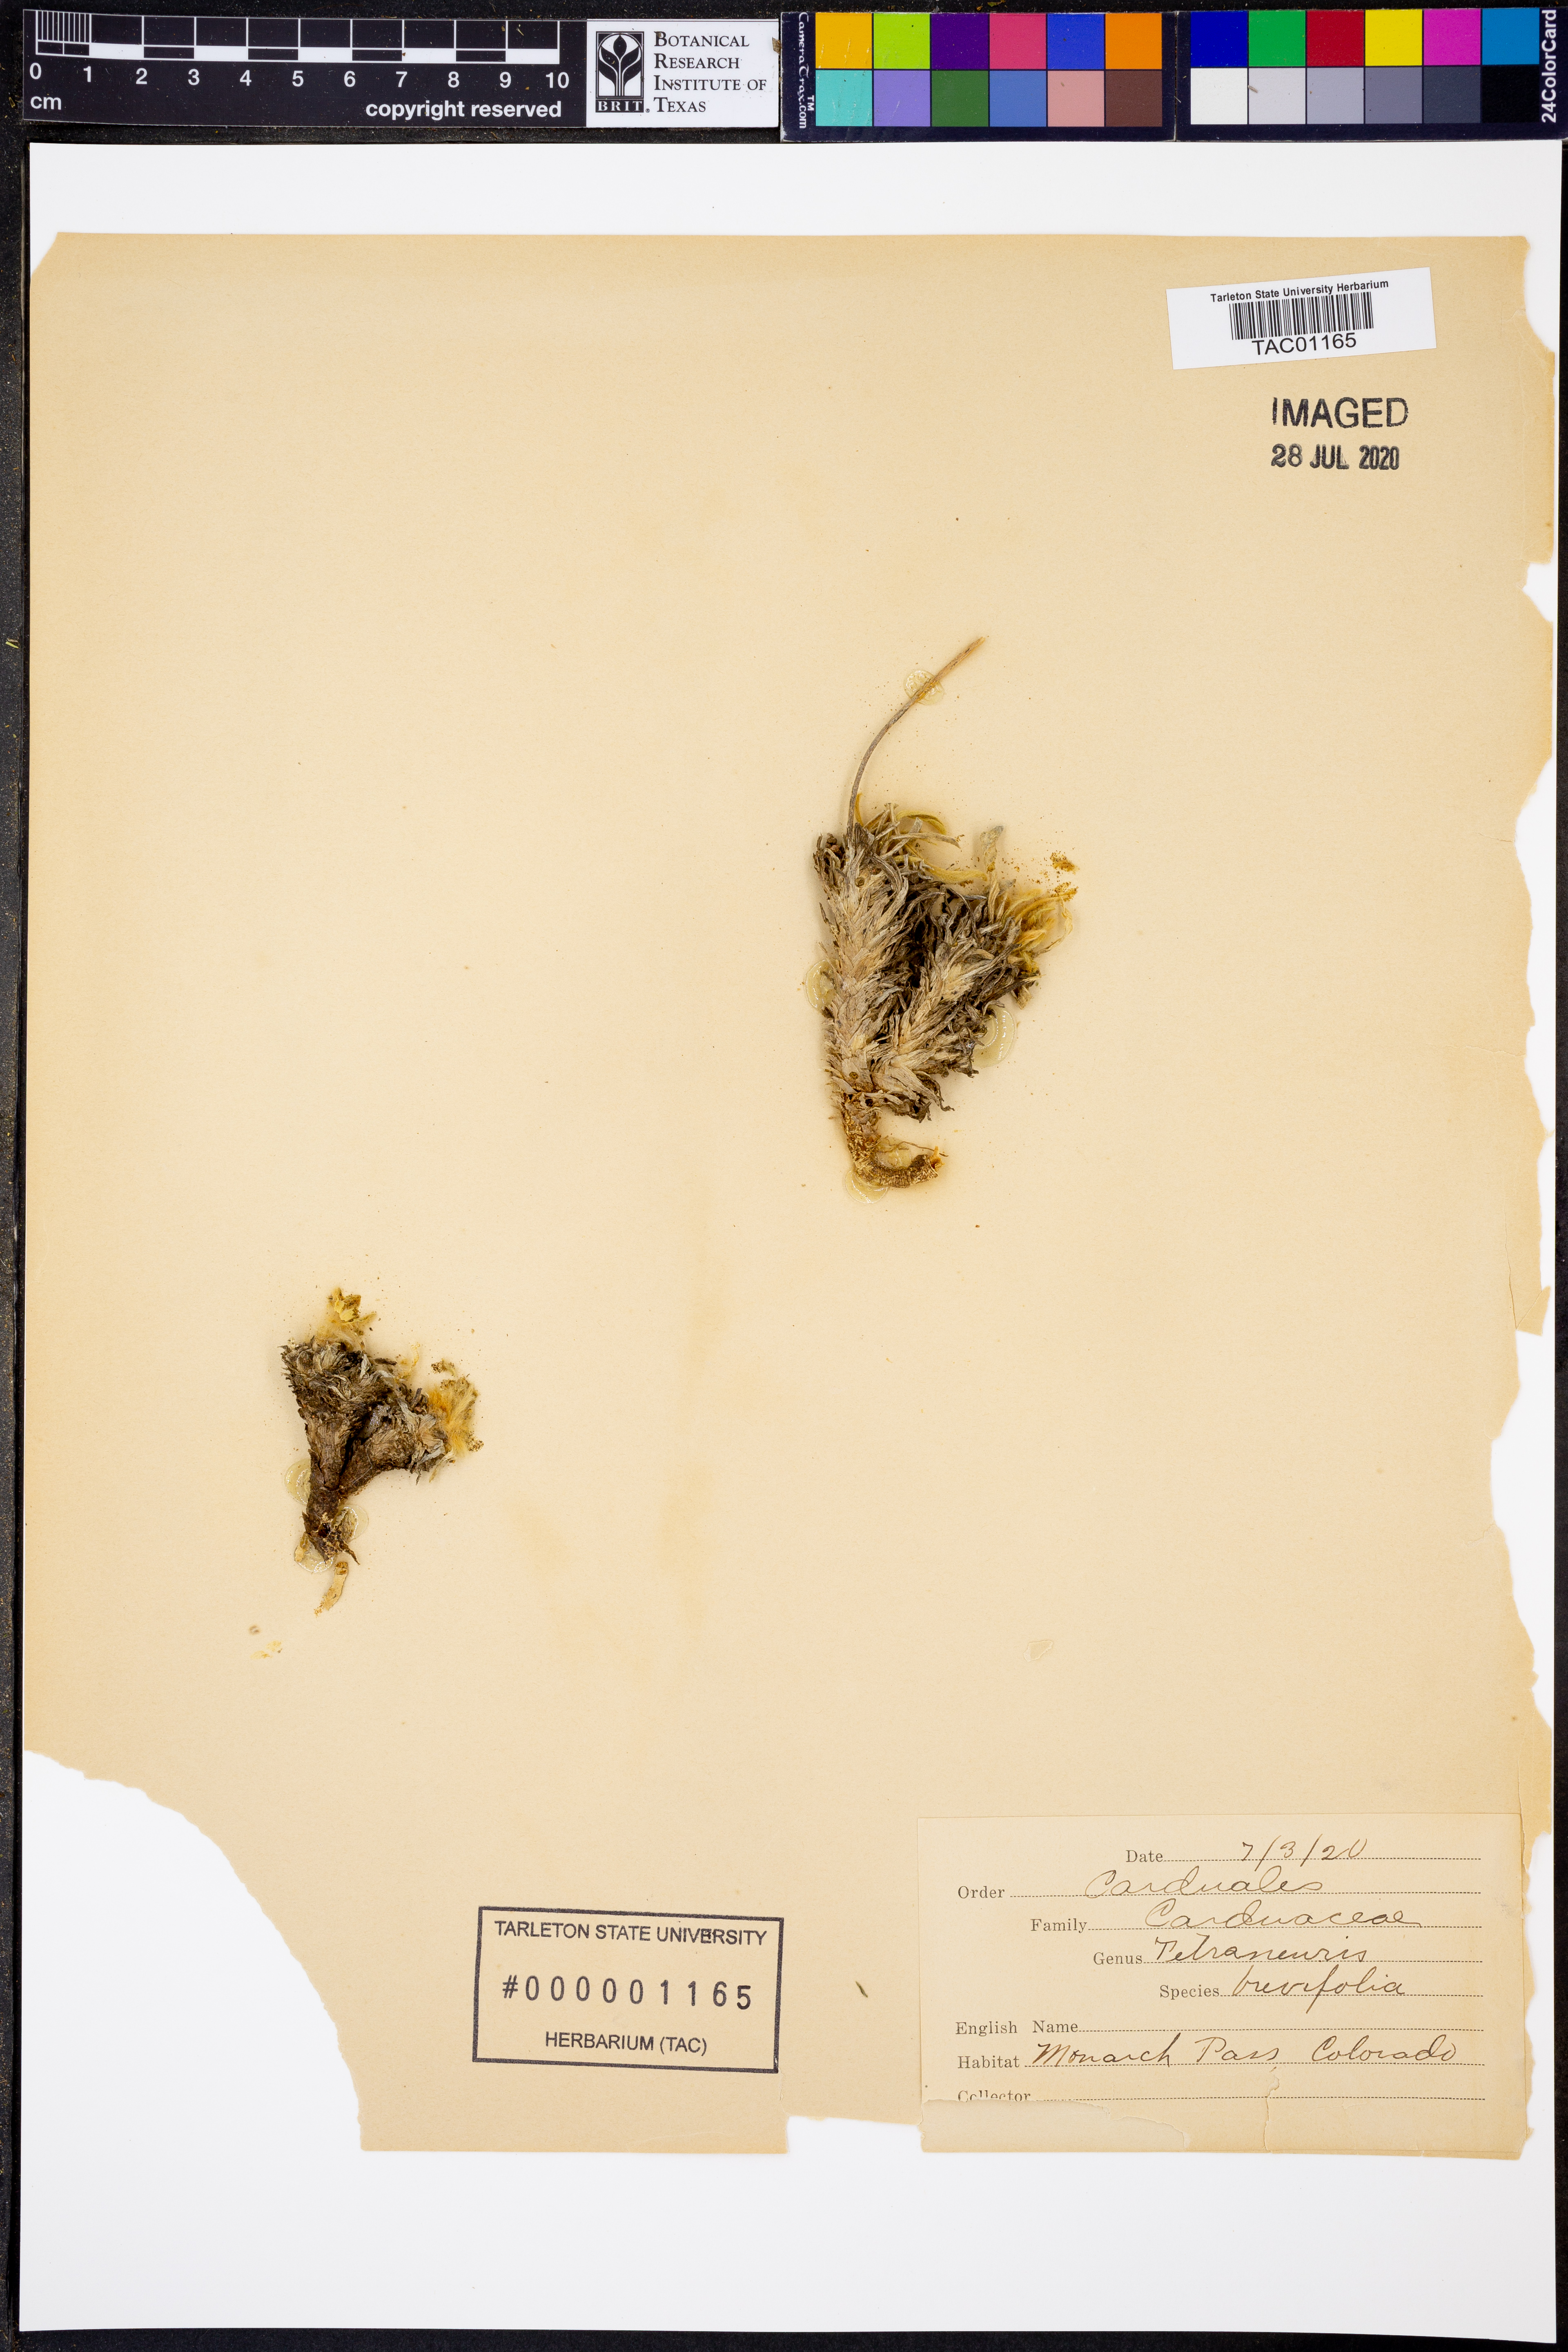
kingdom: Plantae
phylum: Tracheophyta
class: Magnoliopsida
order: Asterales
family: Asteraceae
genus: Tetraneuris
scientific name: Tetraneuris acaulis
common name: Butte marigold
